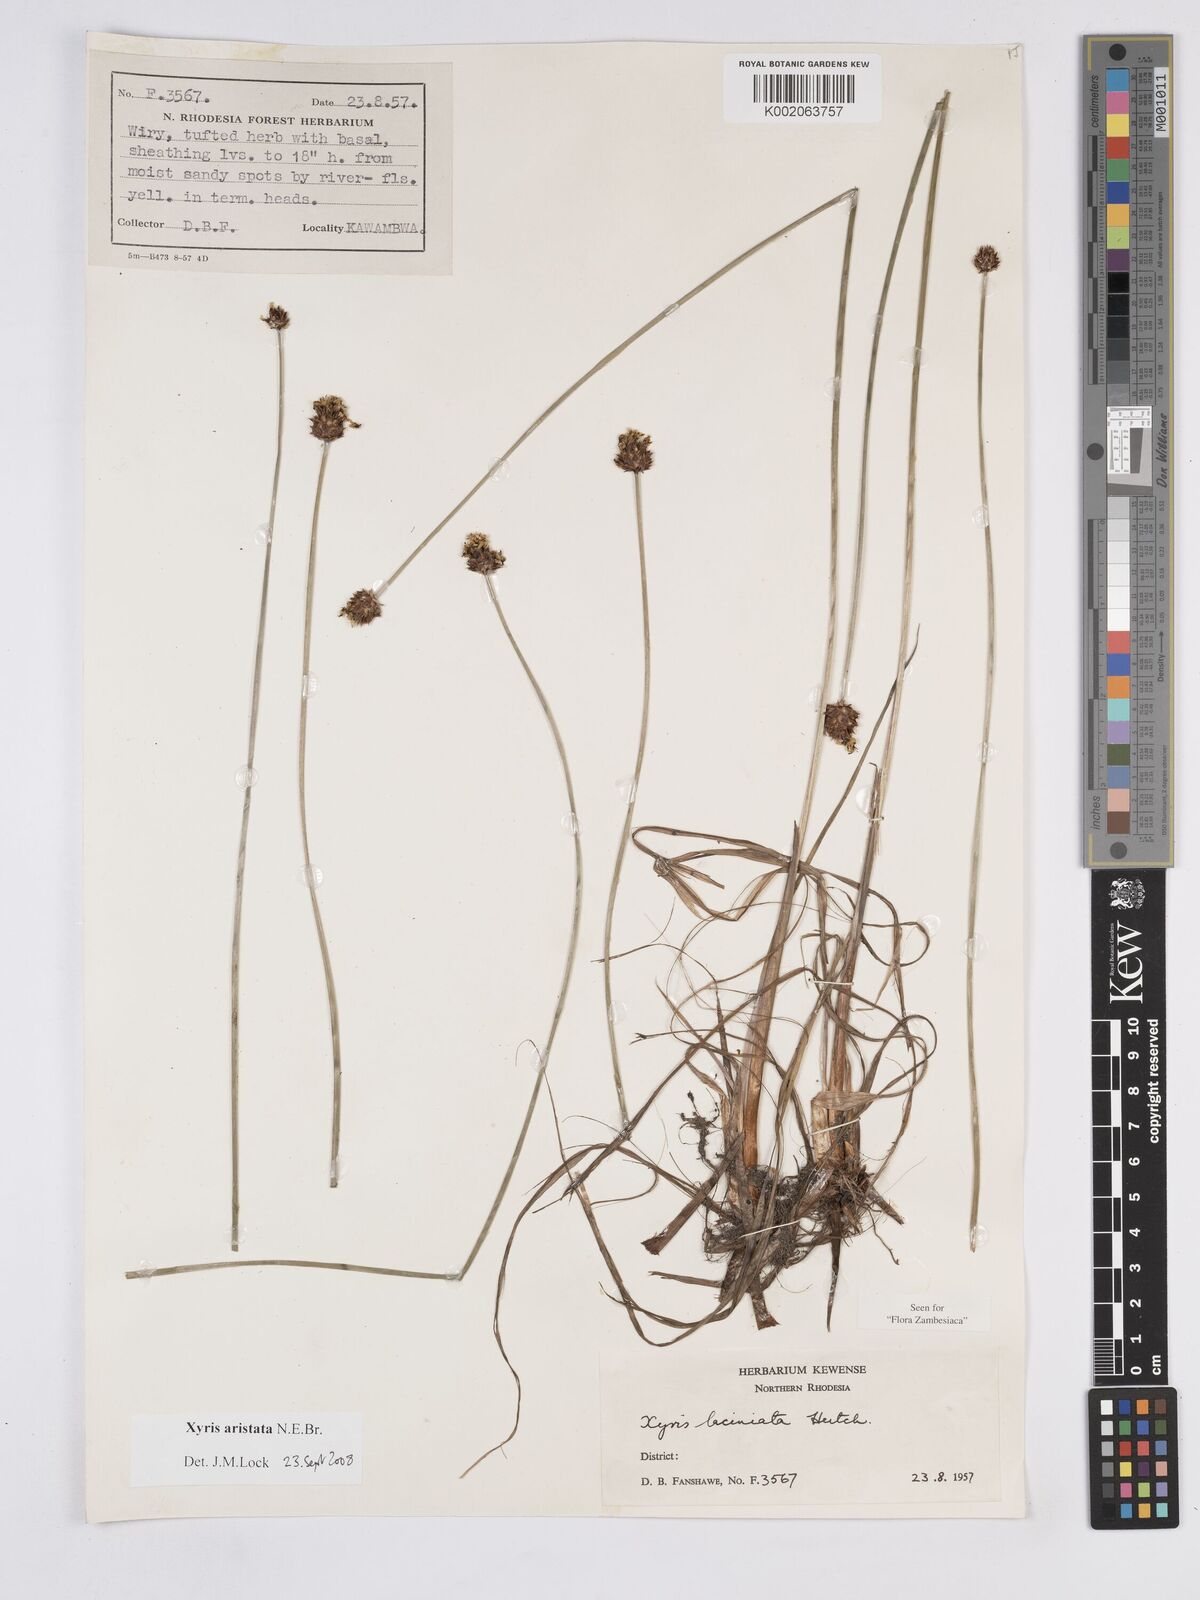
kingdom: Plantae
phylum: Tracheophyta
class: Liliopsida
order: Poales
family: Xyridaceae
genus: Xyris
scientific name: Xyris aristata
